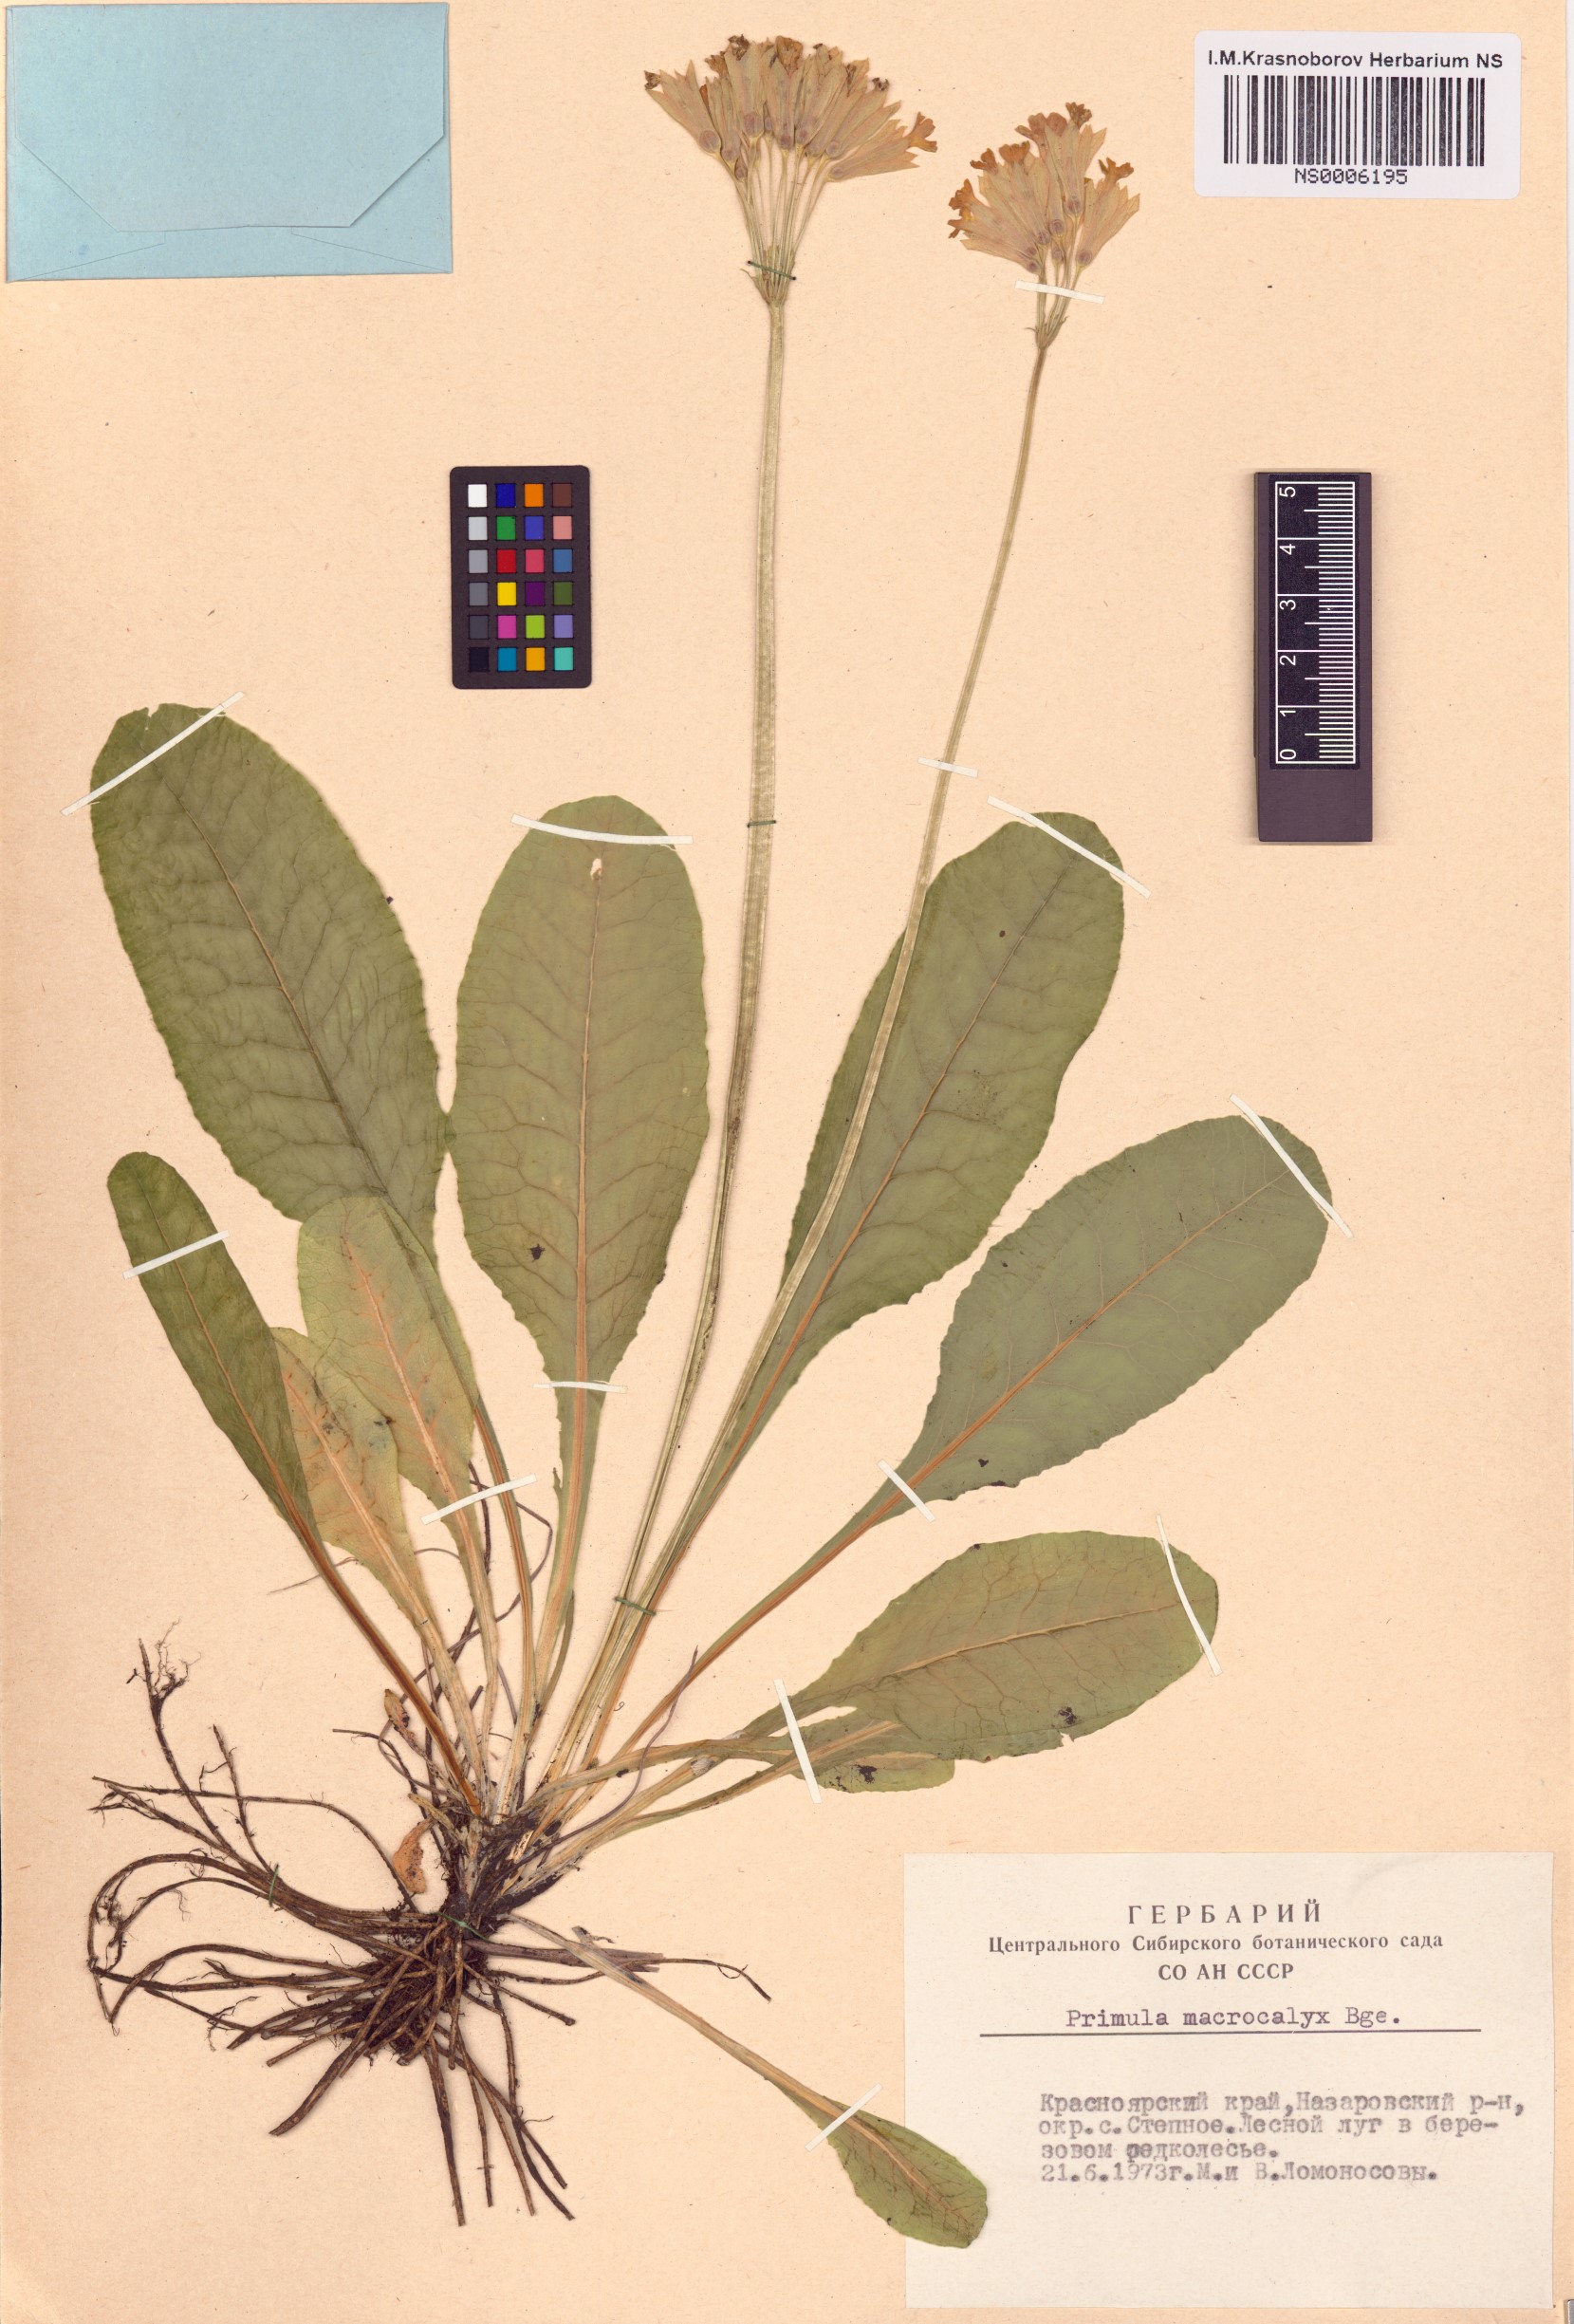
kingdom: Plantae
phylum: Tracheophyta
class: Magnoliopsida
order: Ericales
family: Primulaceae
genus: Primula
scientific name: Primula veris
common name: Cowslip
